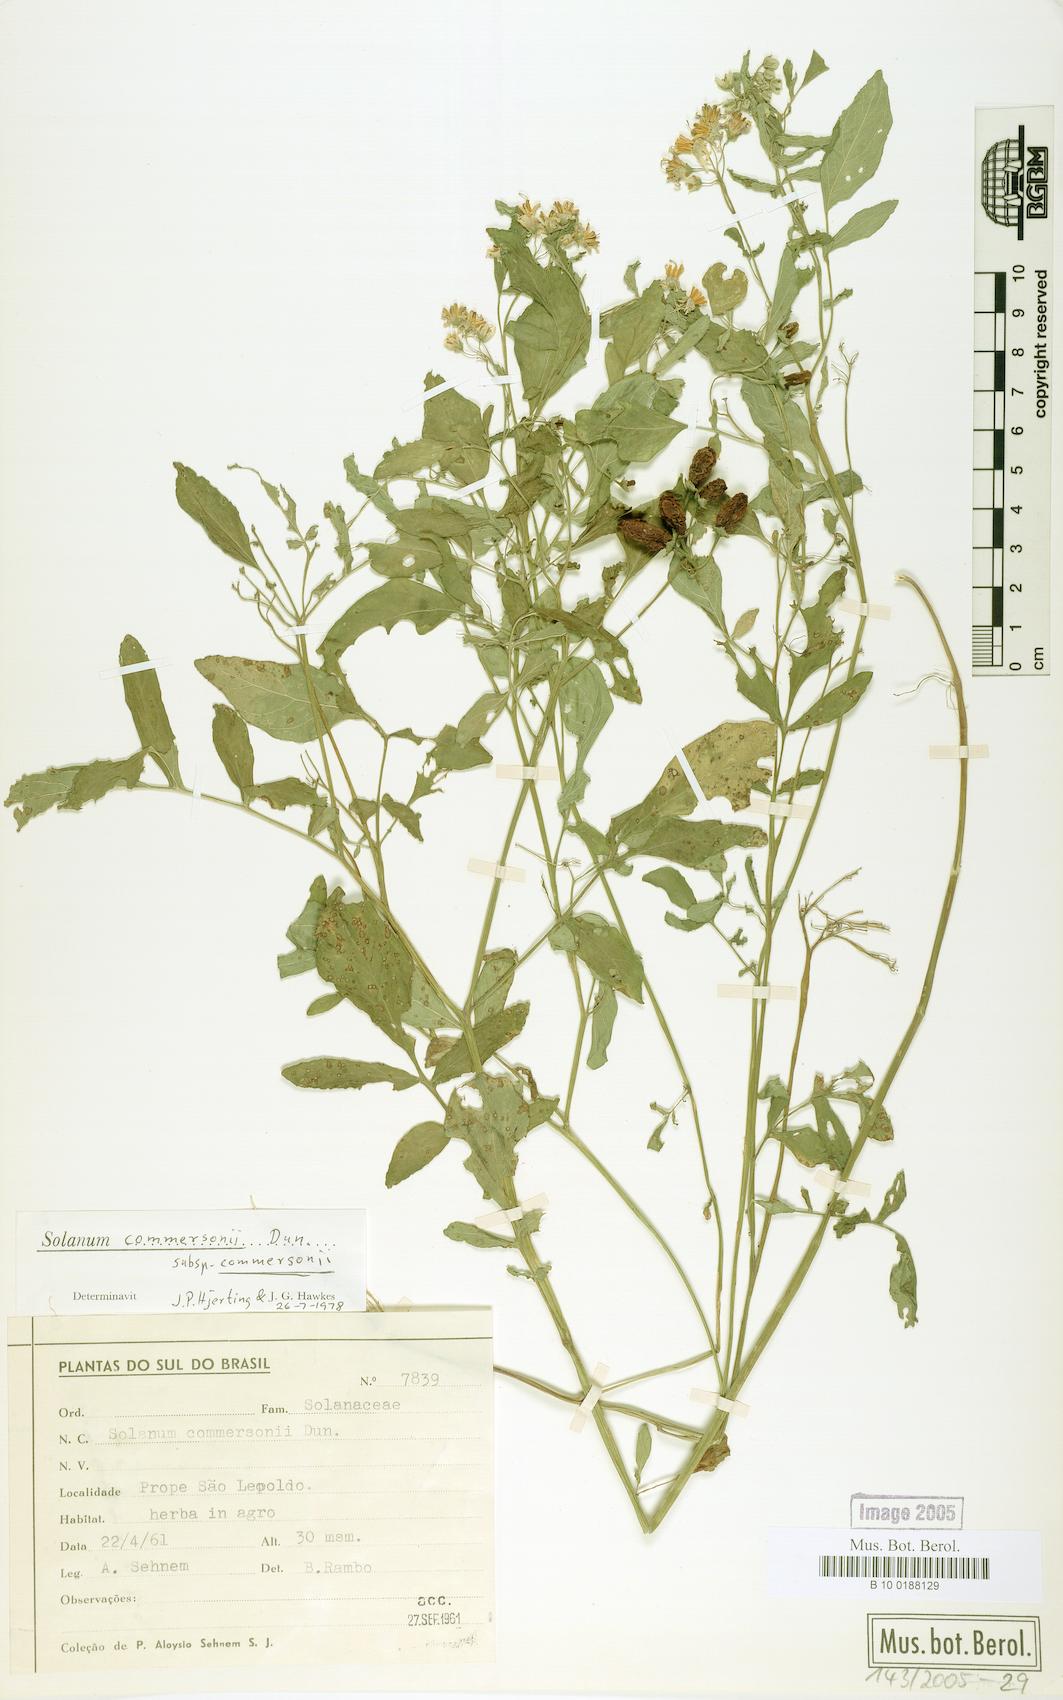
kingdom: Plantae
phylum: Tracheophyta
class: Magnoliopsida
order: Solanales
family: Solanaceae
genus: Solanum
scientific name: Solanum commersonii
